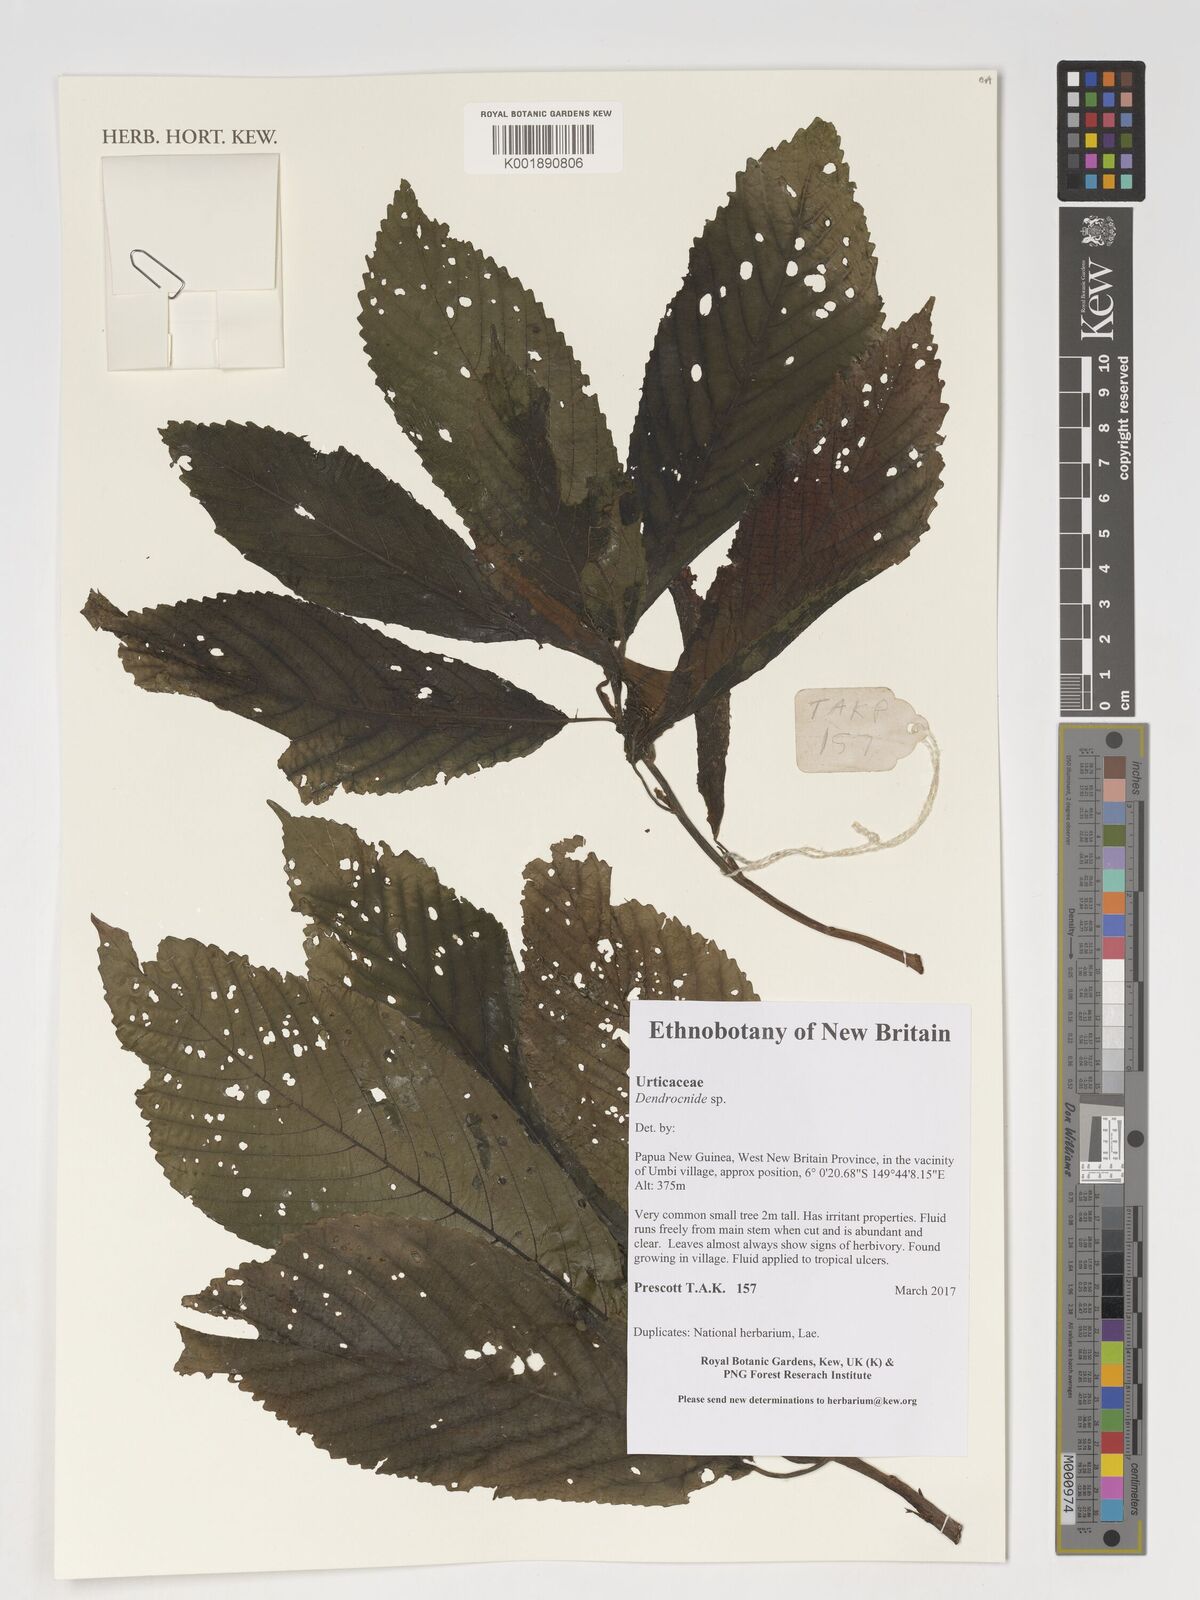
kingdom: Plantae
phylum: Tracheophyta
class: Magnoliopsida
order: Rosales
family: Urticaceae
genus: Dendrocnide
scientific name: Dendrocnide
